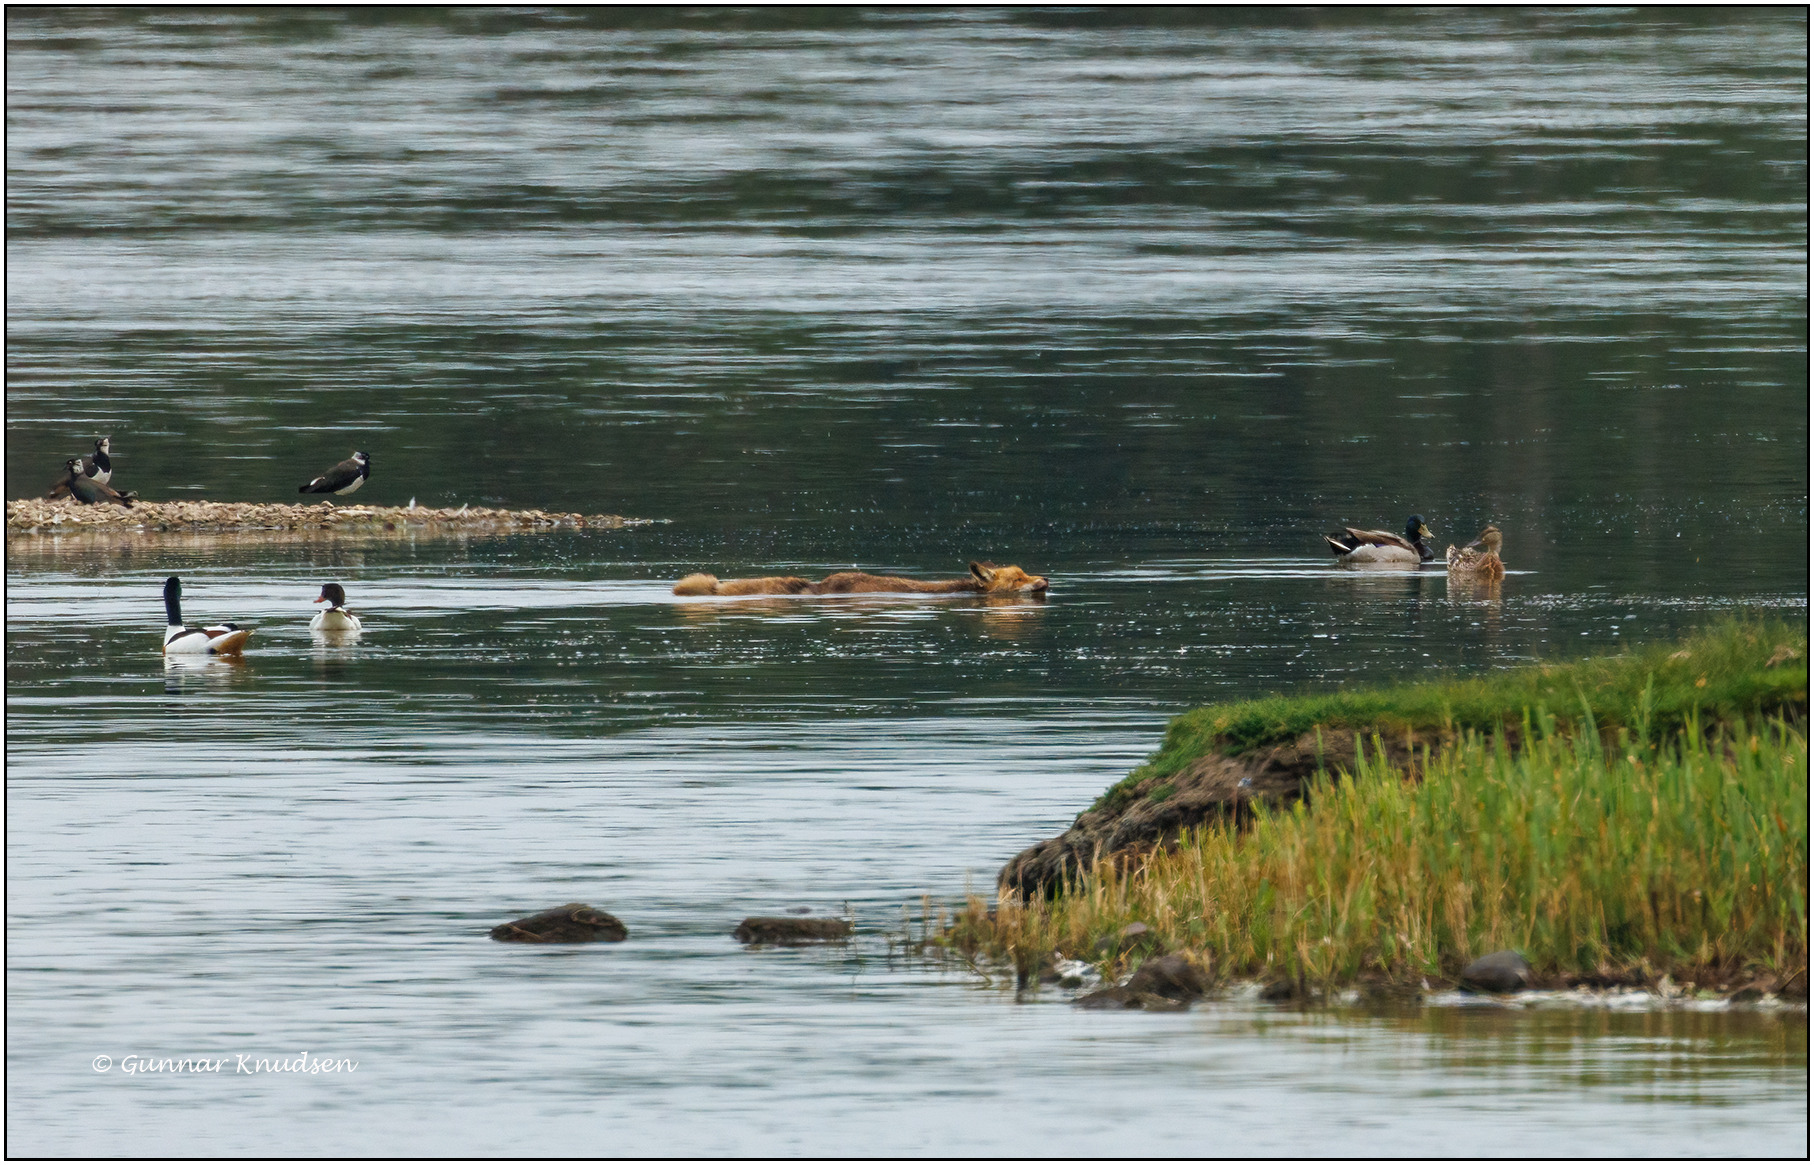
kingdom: Animalia
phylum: Chordata
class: Mammalia
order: Carnivora
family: Canidae
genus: Vulpes
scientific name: Vulpes vulpes
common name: Ræv
